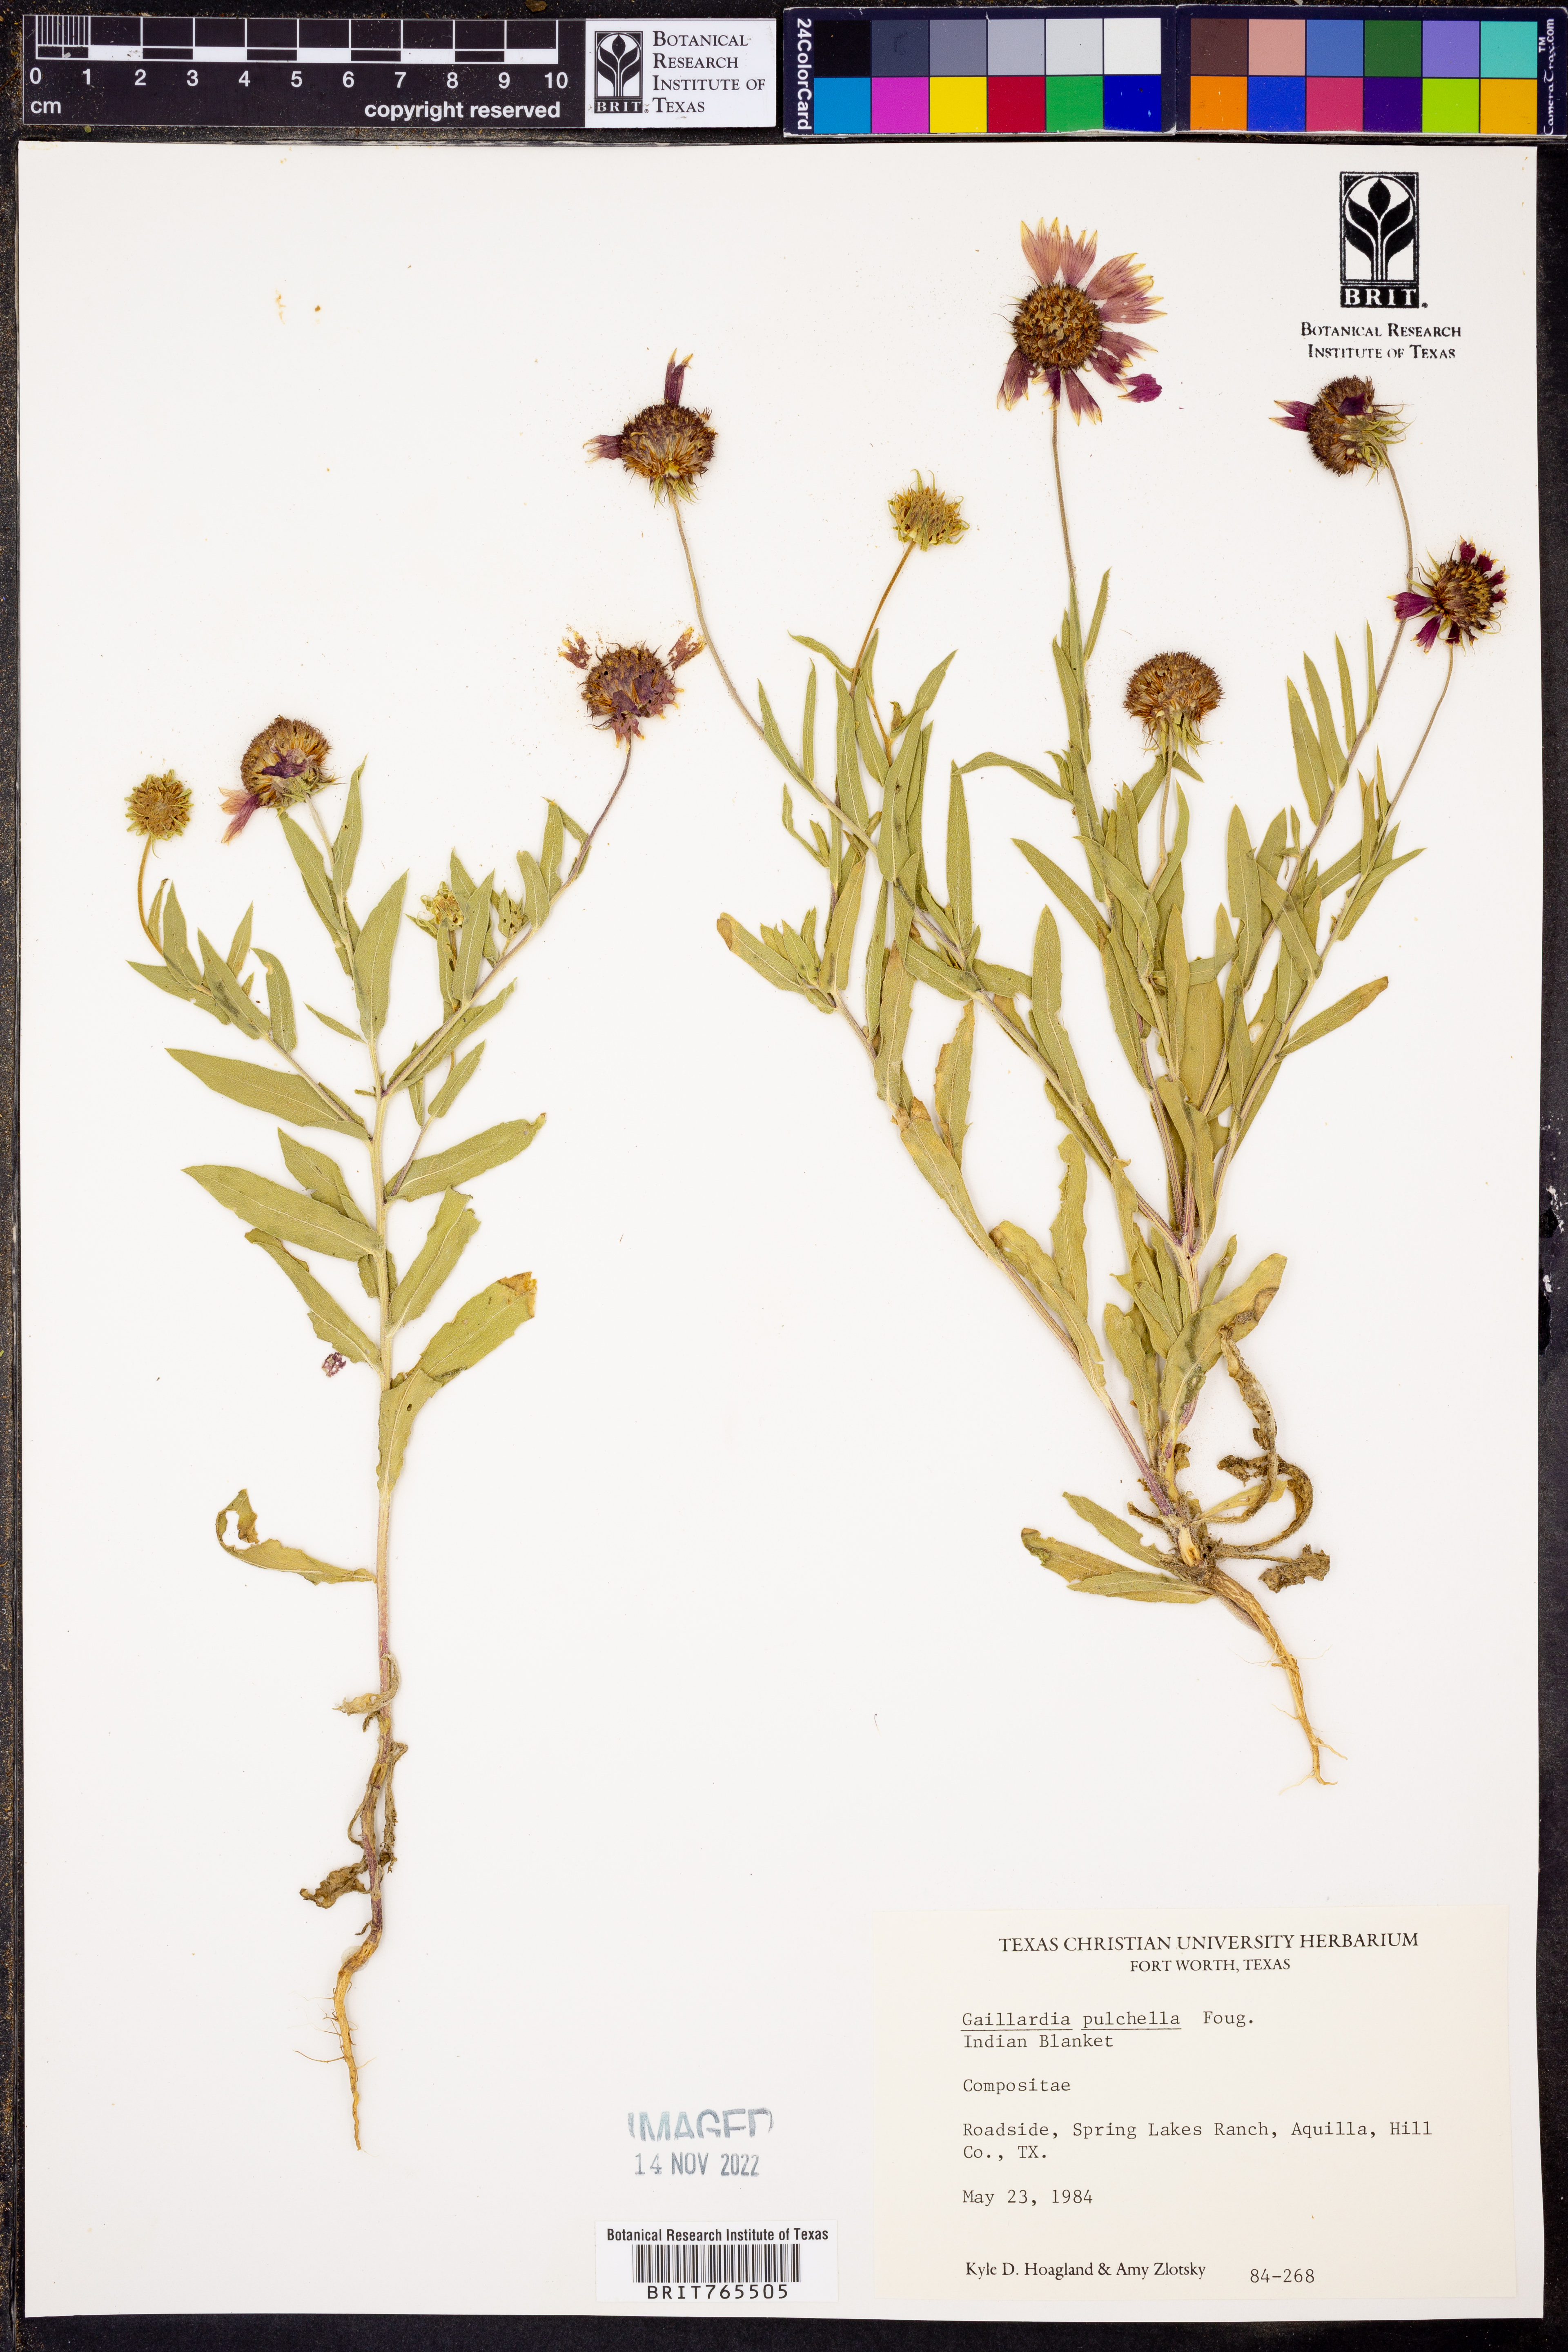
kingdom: Plantae
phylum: Tracheophyta
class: Magnoliopsida
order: Asterales
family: Asteraceae
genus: Gaillardia
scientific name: Gaillardia pulchella
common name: Firewheel
